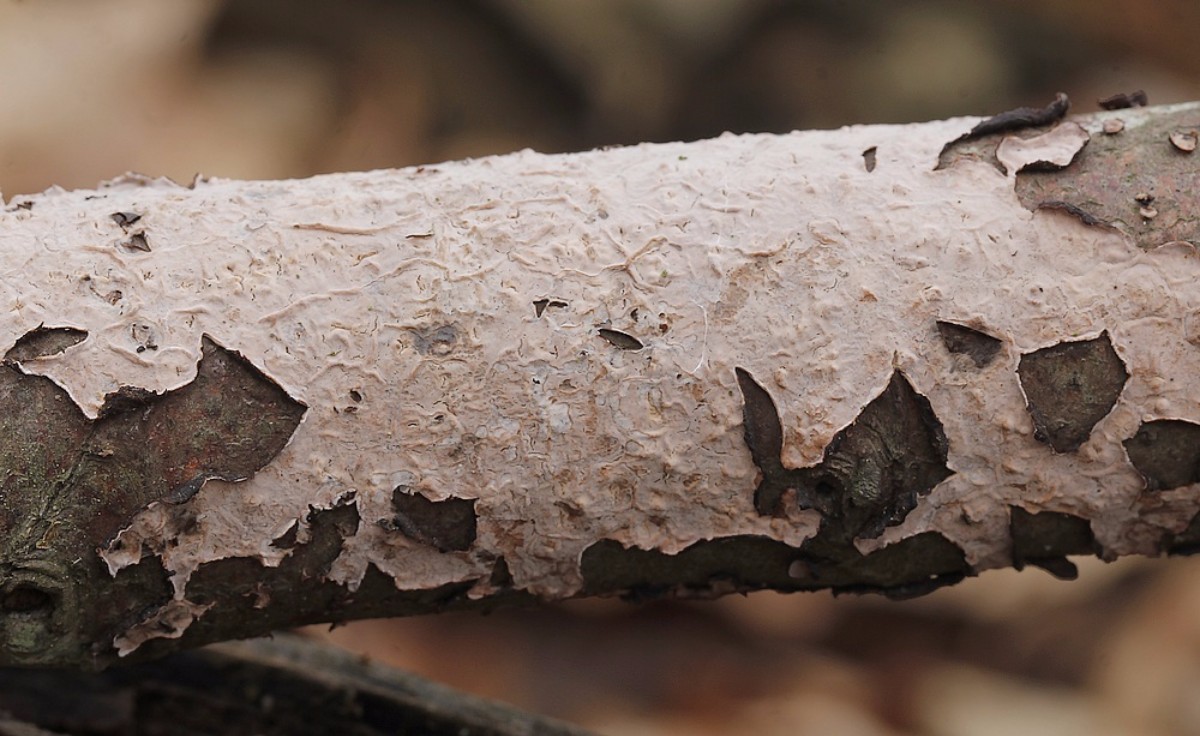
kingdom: Fungi
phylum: Basidiomycota
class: Agaricomycetes
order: Russulales
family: Peniophoraceae
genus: Peniophora
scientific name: Peniophora quercina
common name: ege-voksskind
